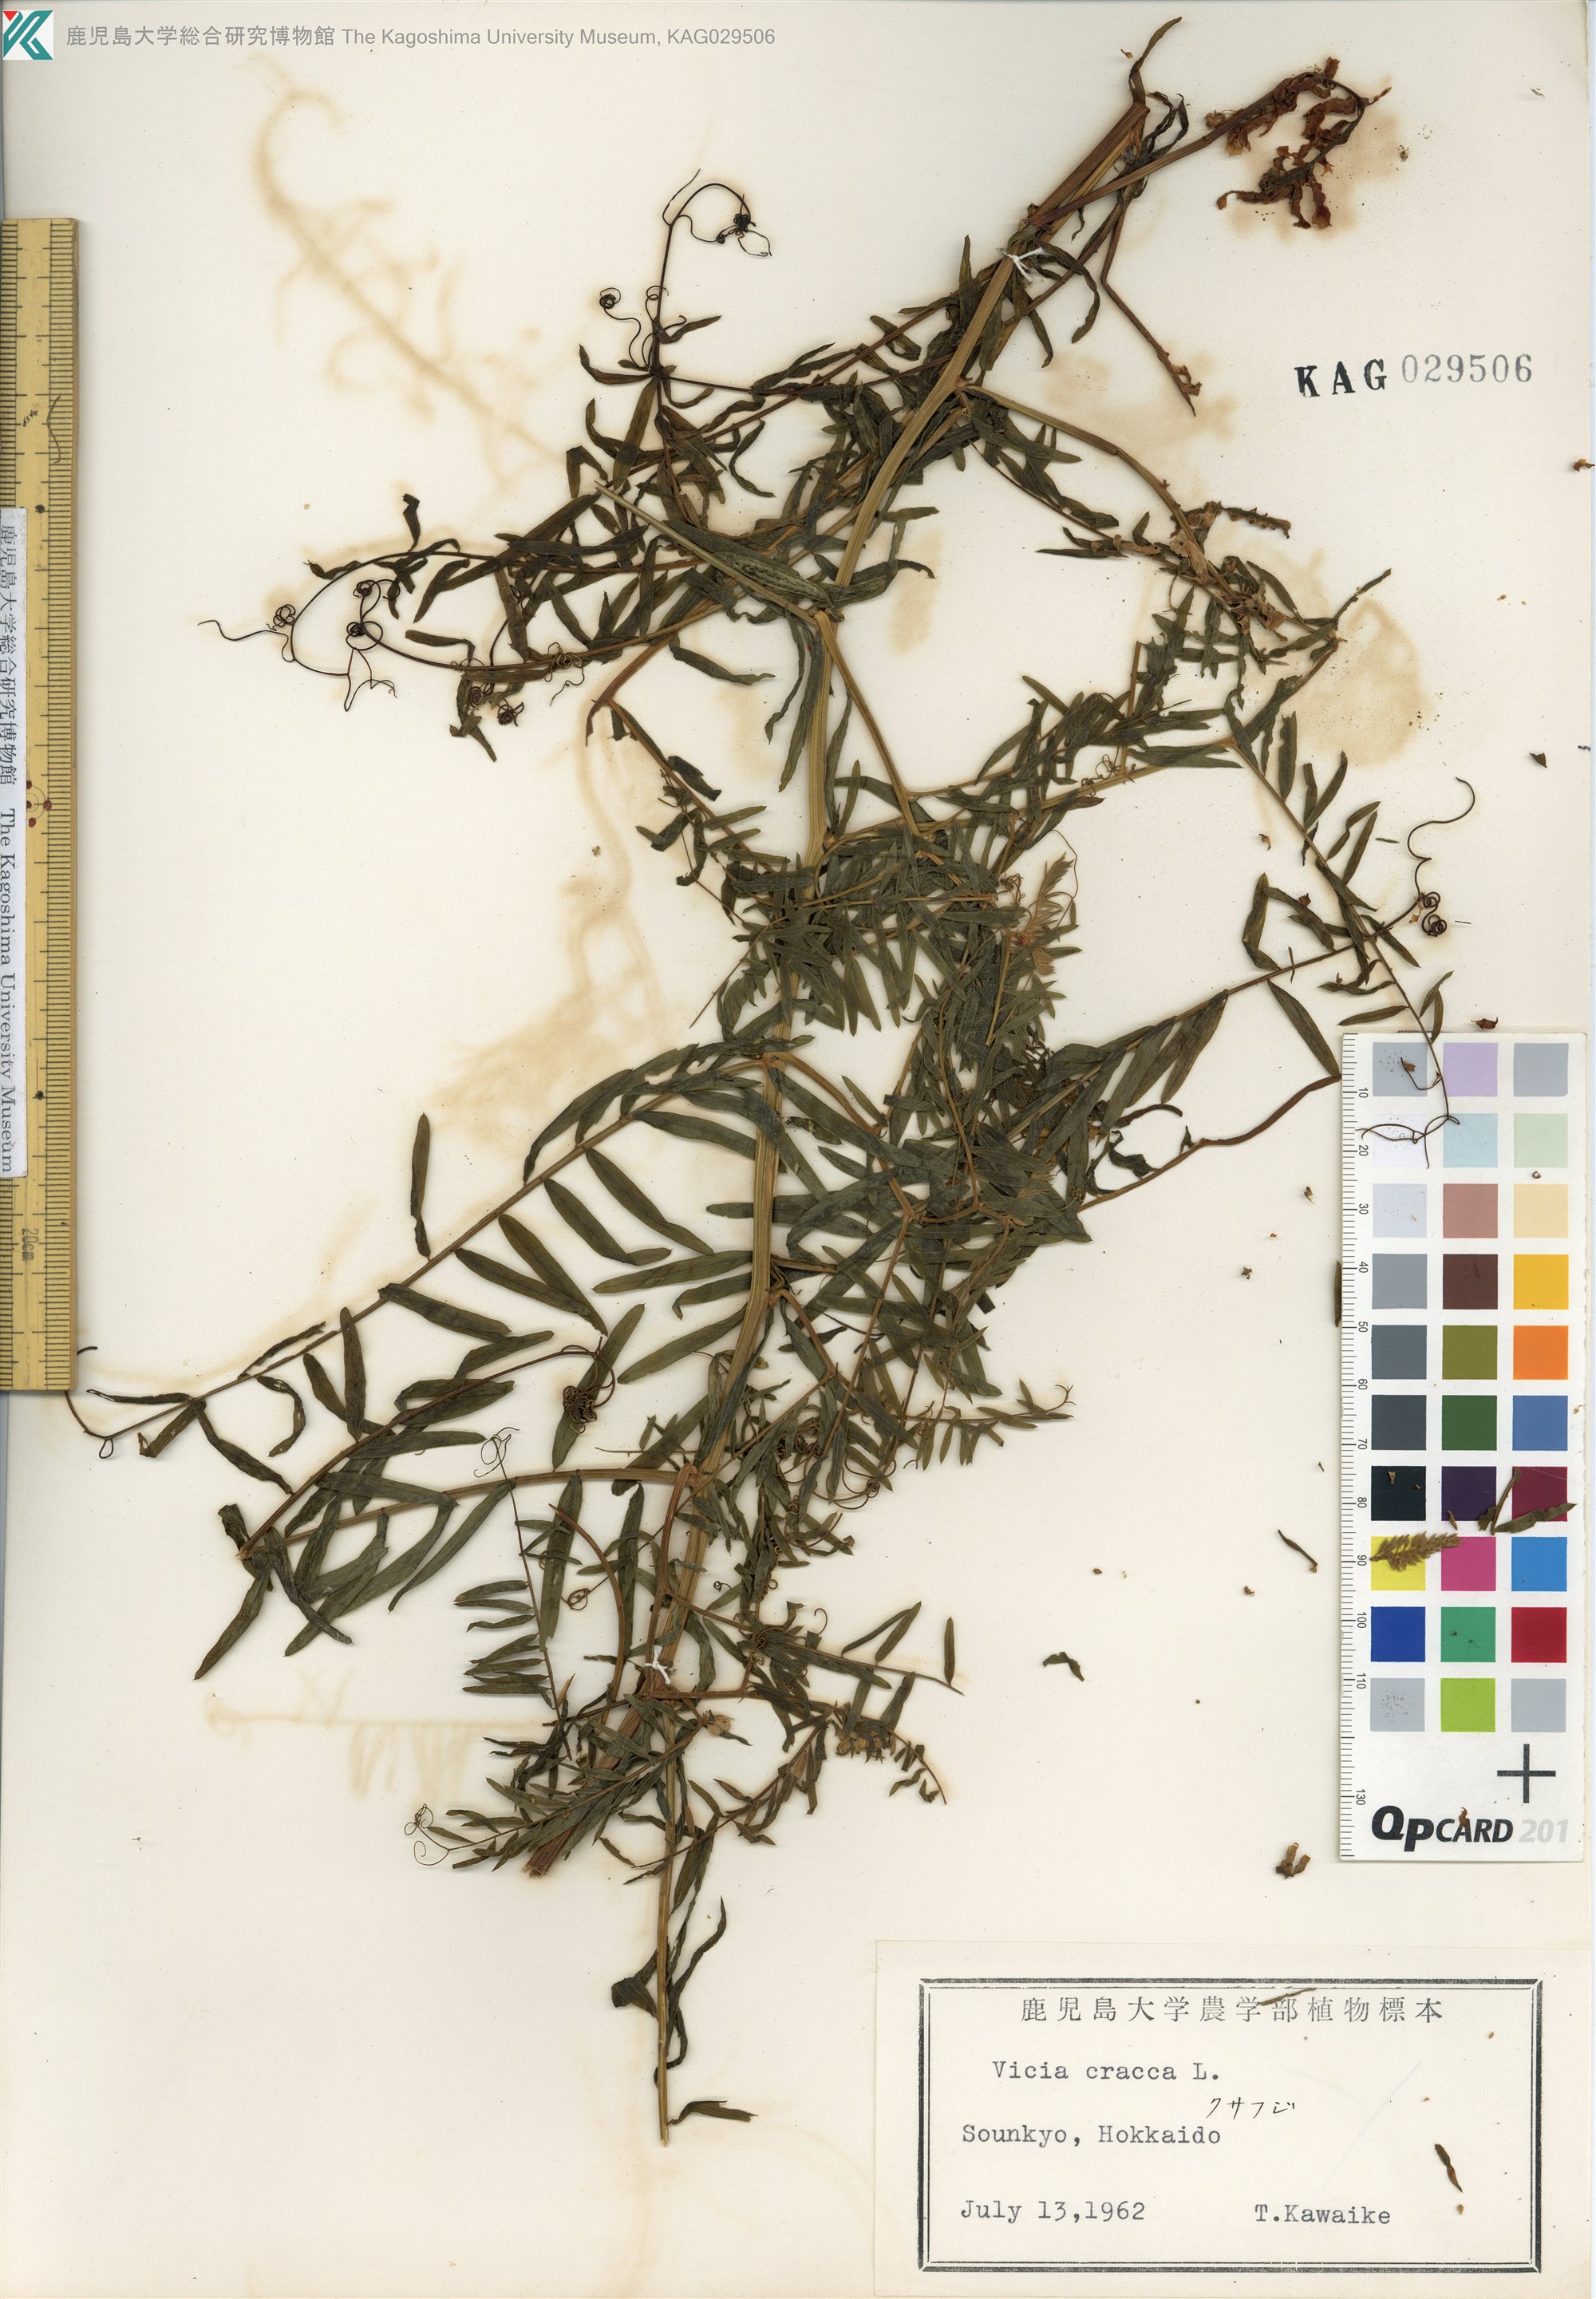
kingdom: Plantae
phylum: Tracheophyta
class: Magnoliopsida
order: Fabales
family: Fabaceae
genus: Vicia
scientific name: Vicia cracca
